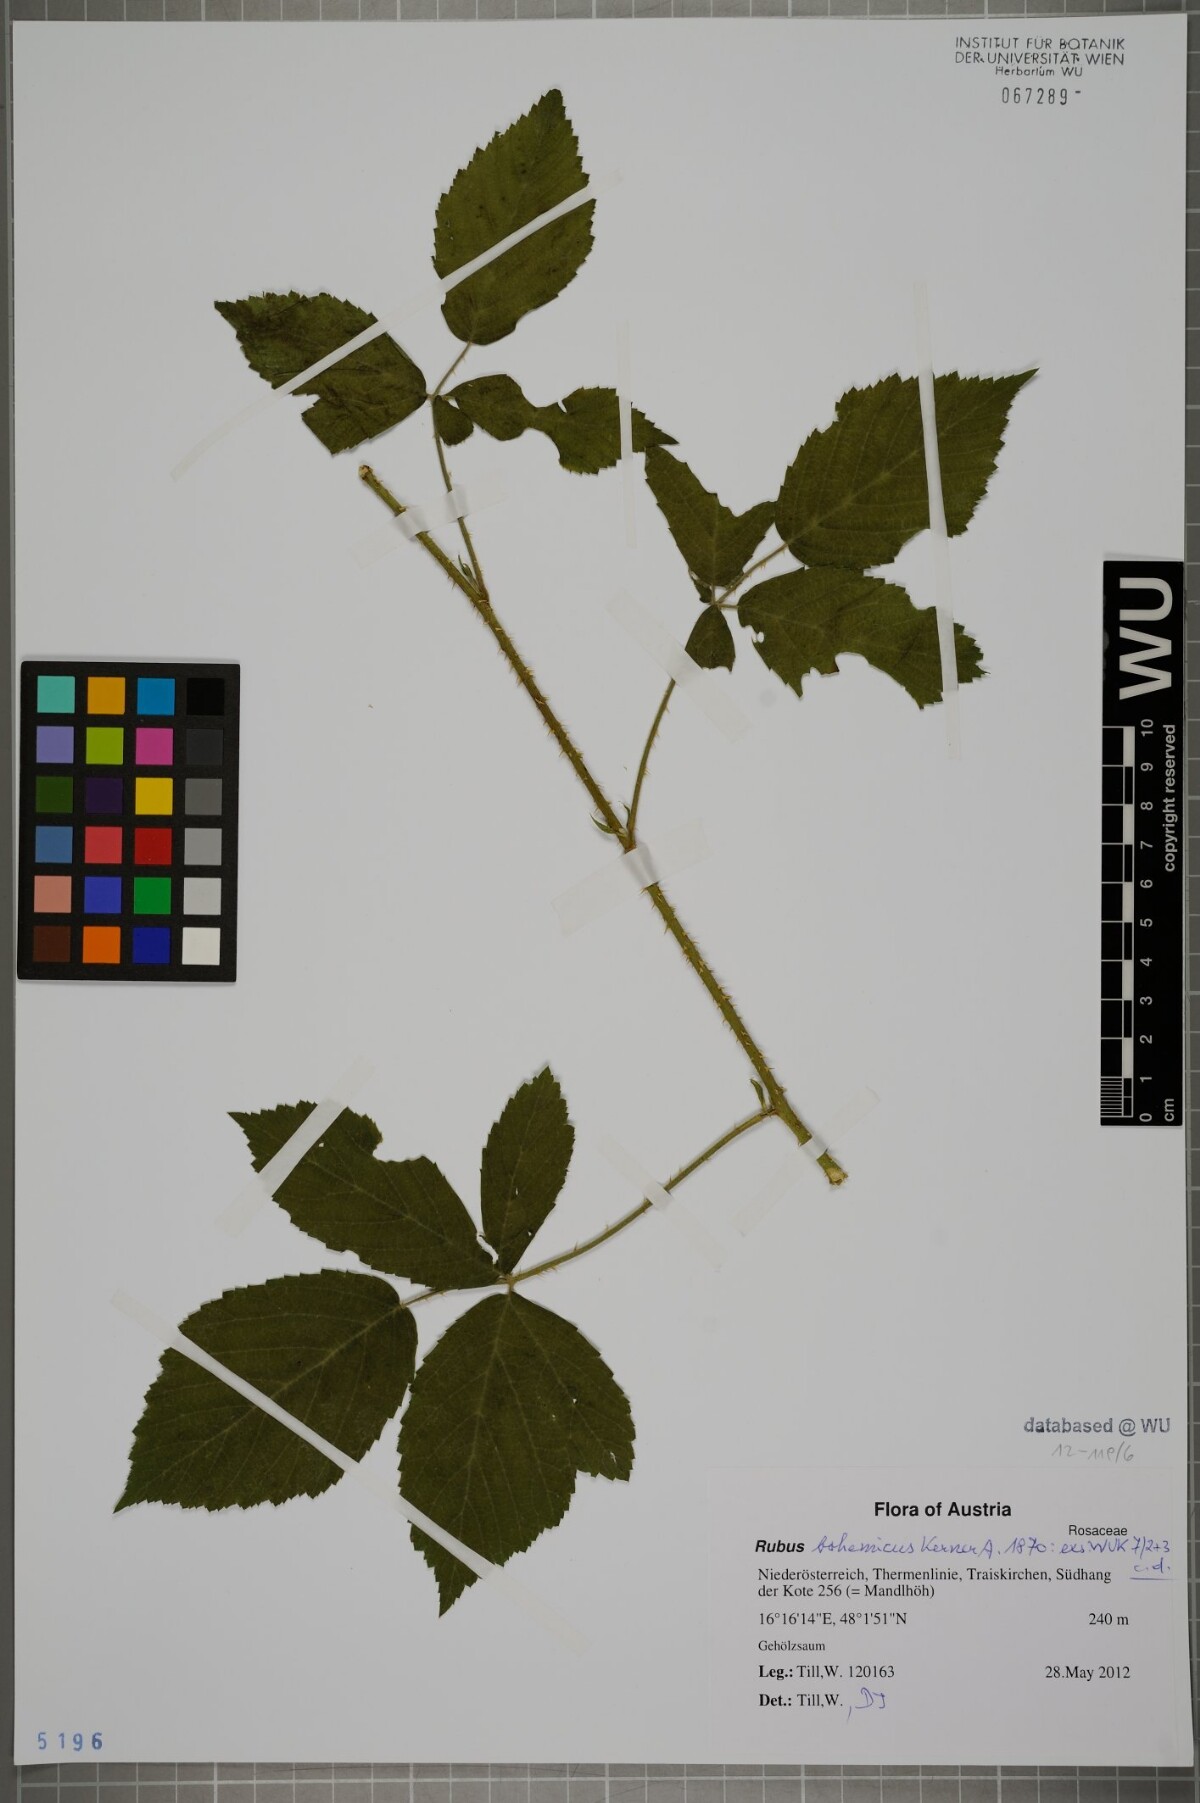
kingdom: Plantae
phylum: Tracheophyta
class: Magnoliopsida
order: Rosales
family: Rosaceae
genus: Rubus
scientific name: Rubus
